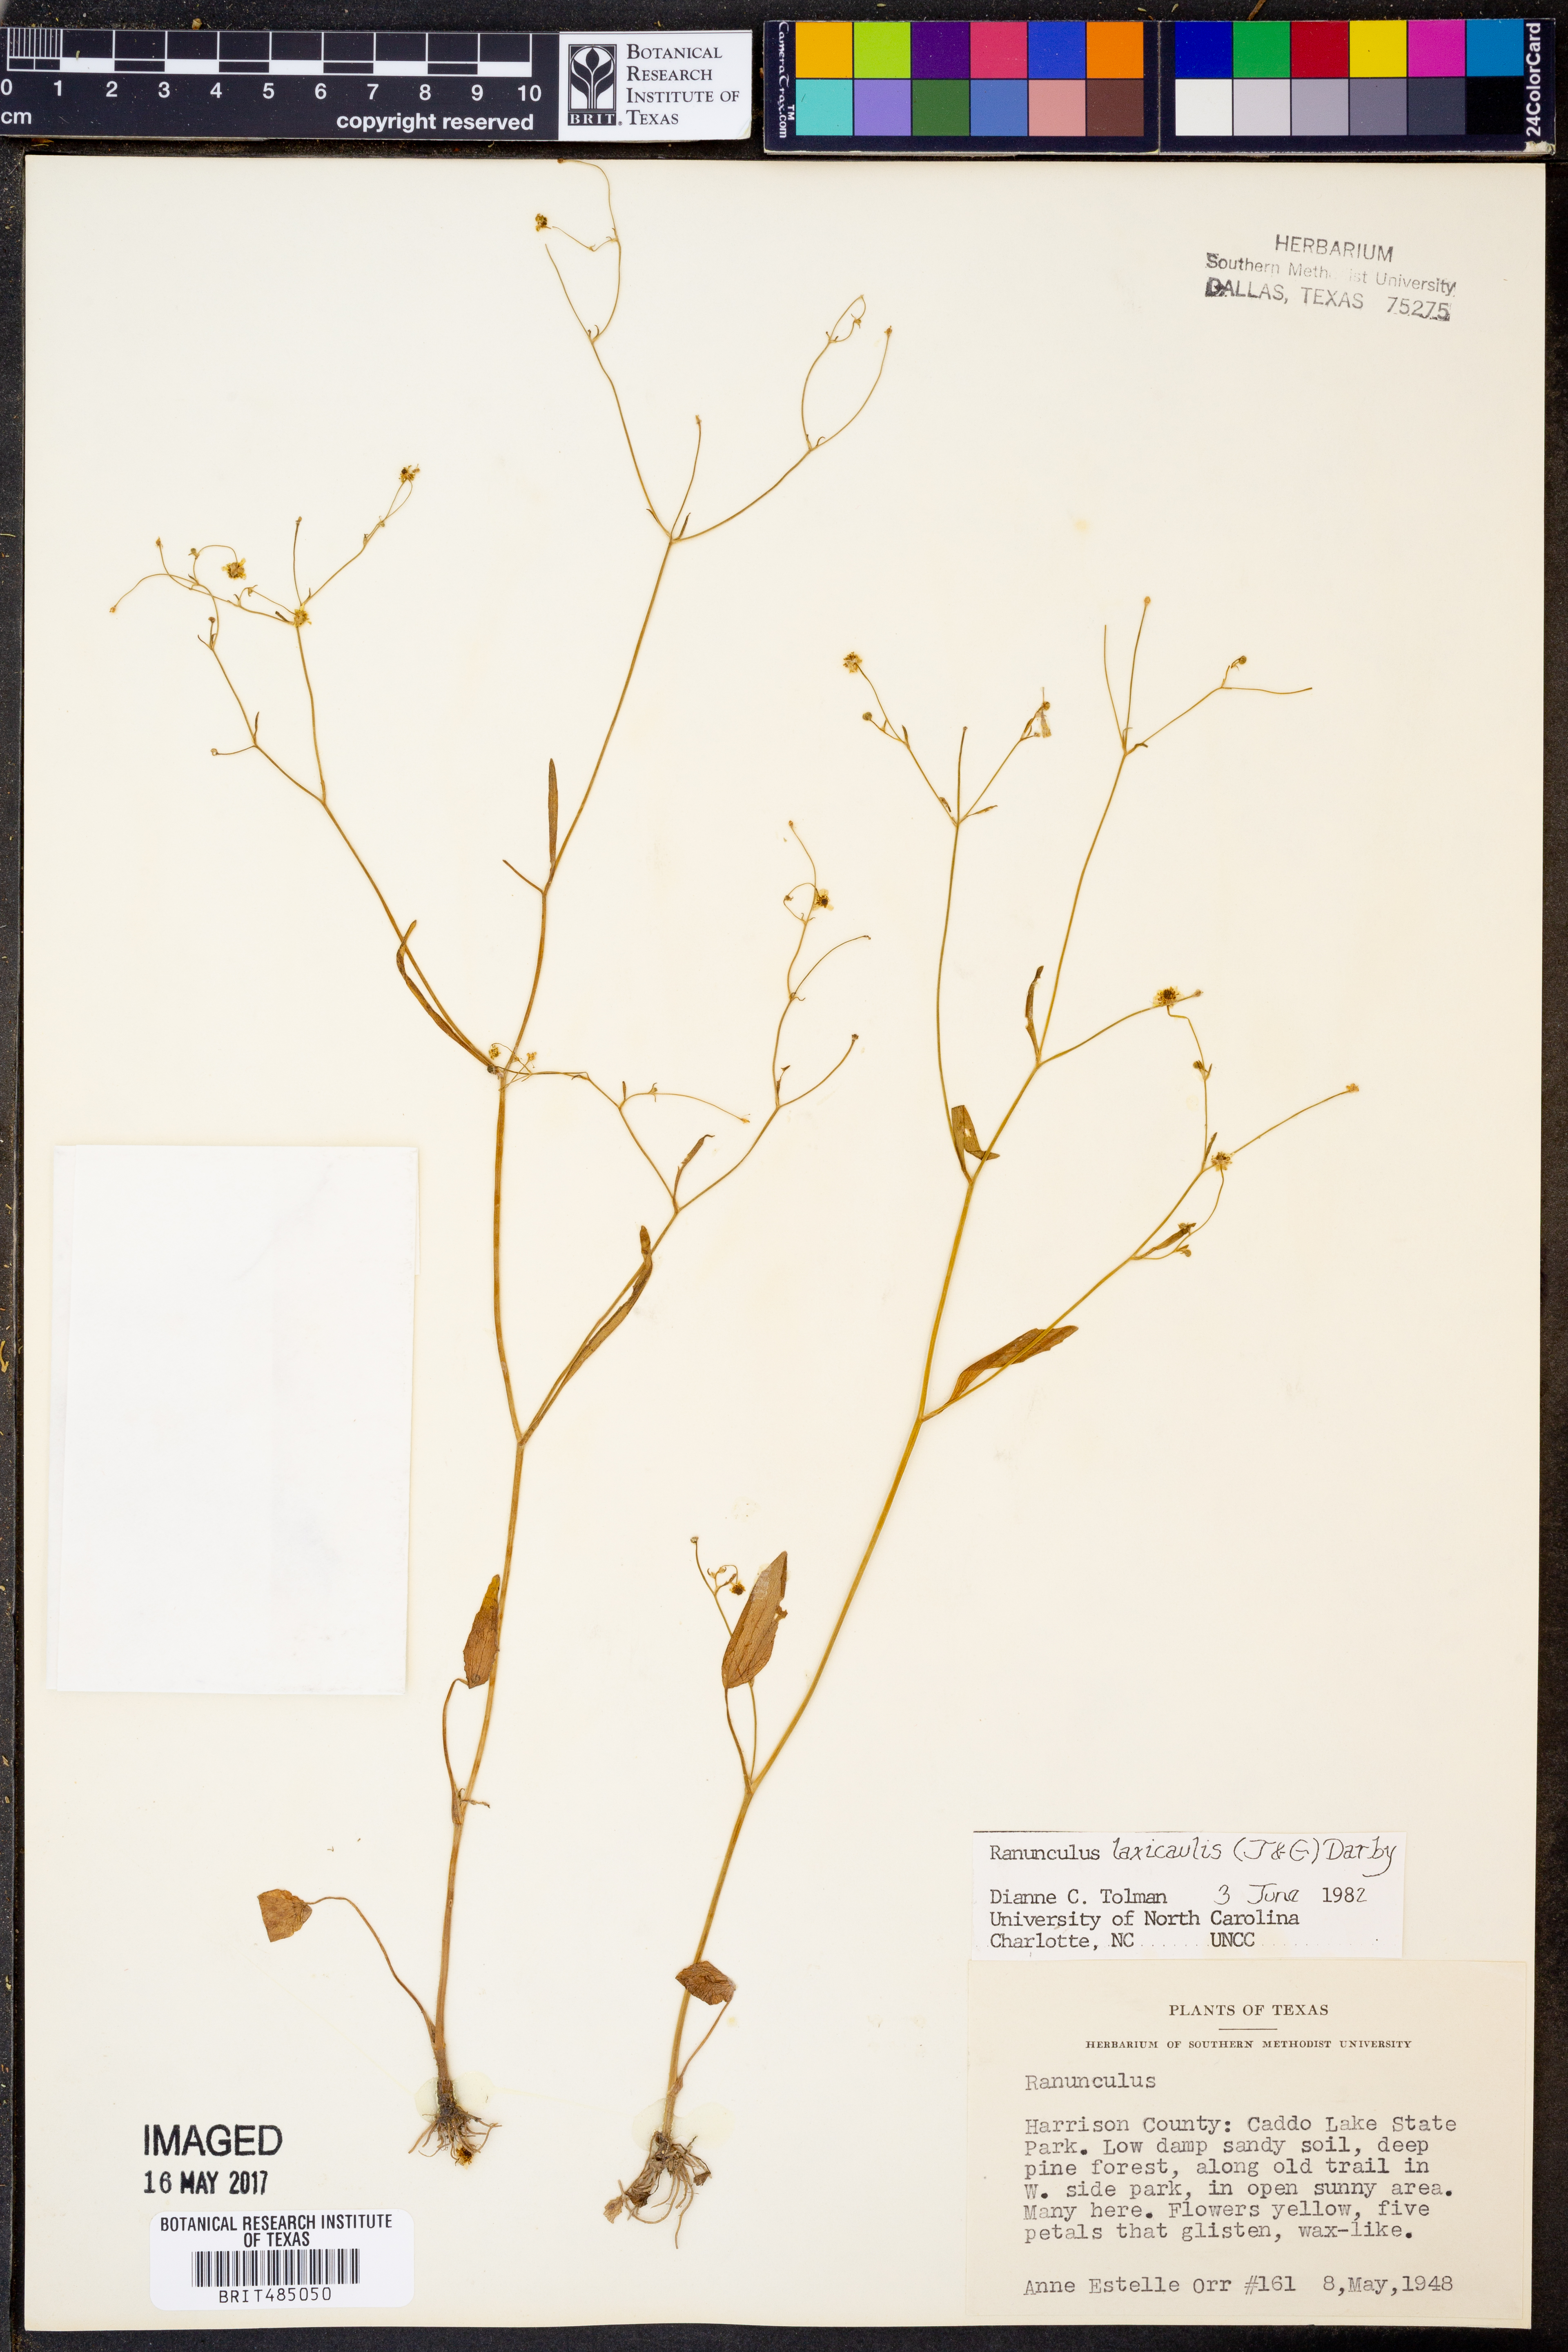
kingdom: Plantae
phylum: Tracheophyta
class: Magnoliopsida
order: Ranunculales
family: Ranunculaceae
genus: Ranunculus
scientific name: Ranunculus laxicaulis
